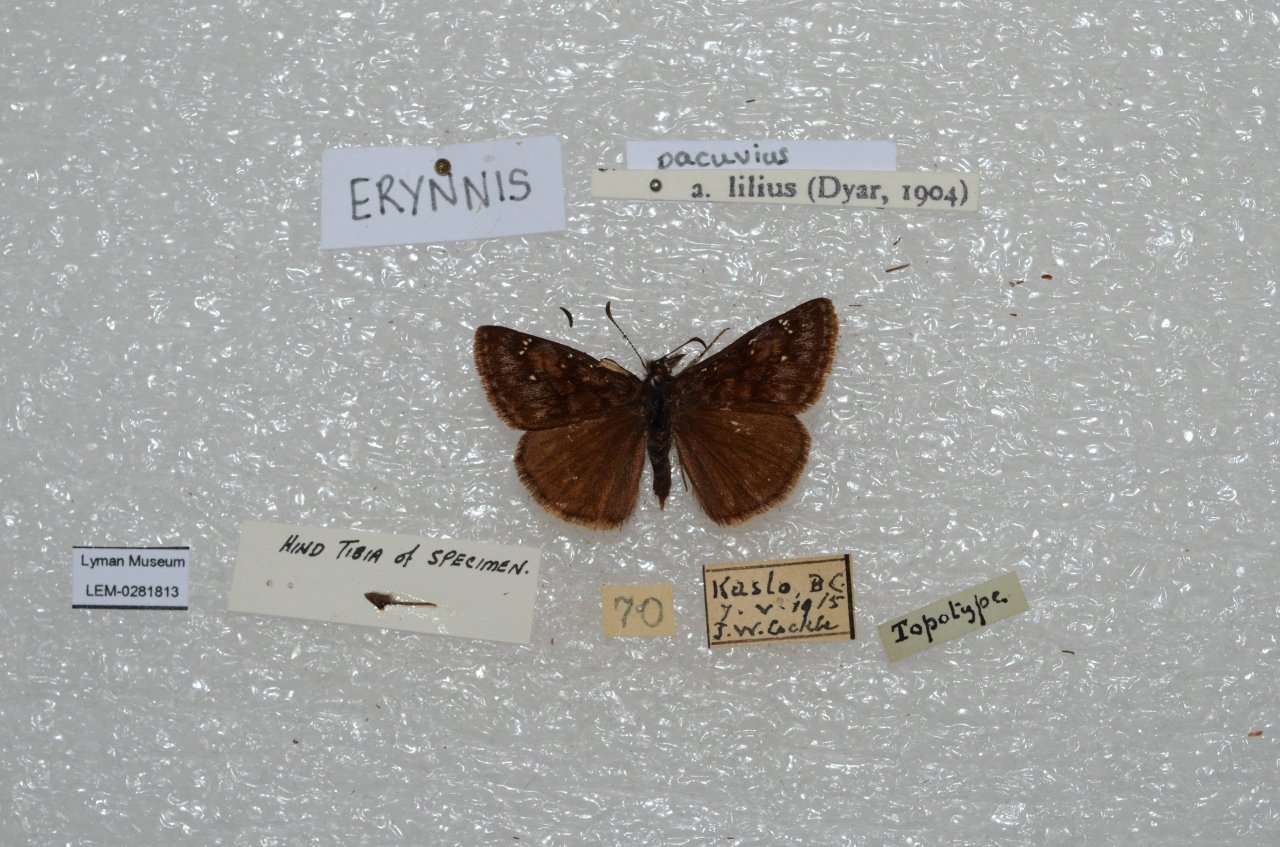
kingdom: Animalia
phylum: Arthropoda
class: Insecta
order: Lepidoptera
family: Hesperiidae
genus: Erynnis
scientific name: Erynnis pacuvius
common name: Pacuvius Duskywing
